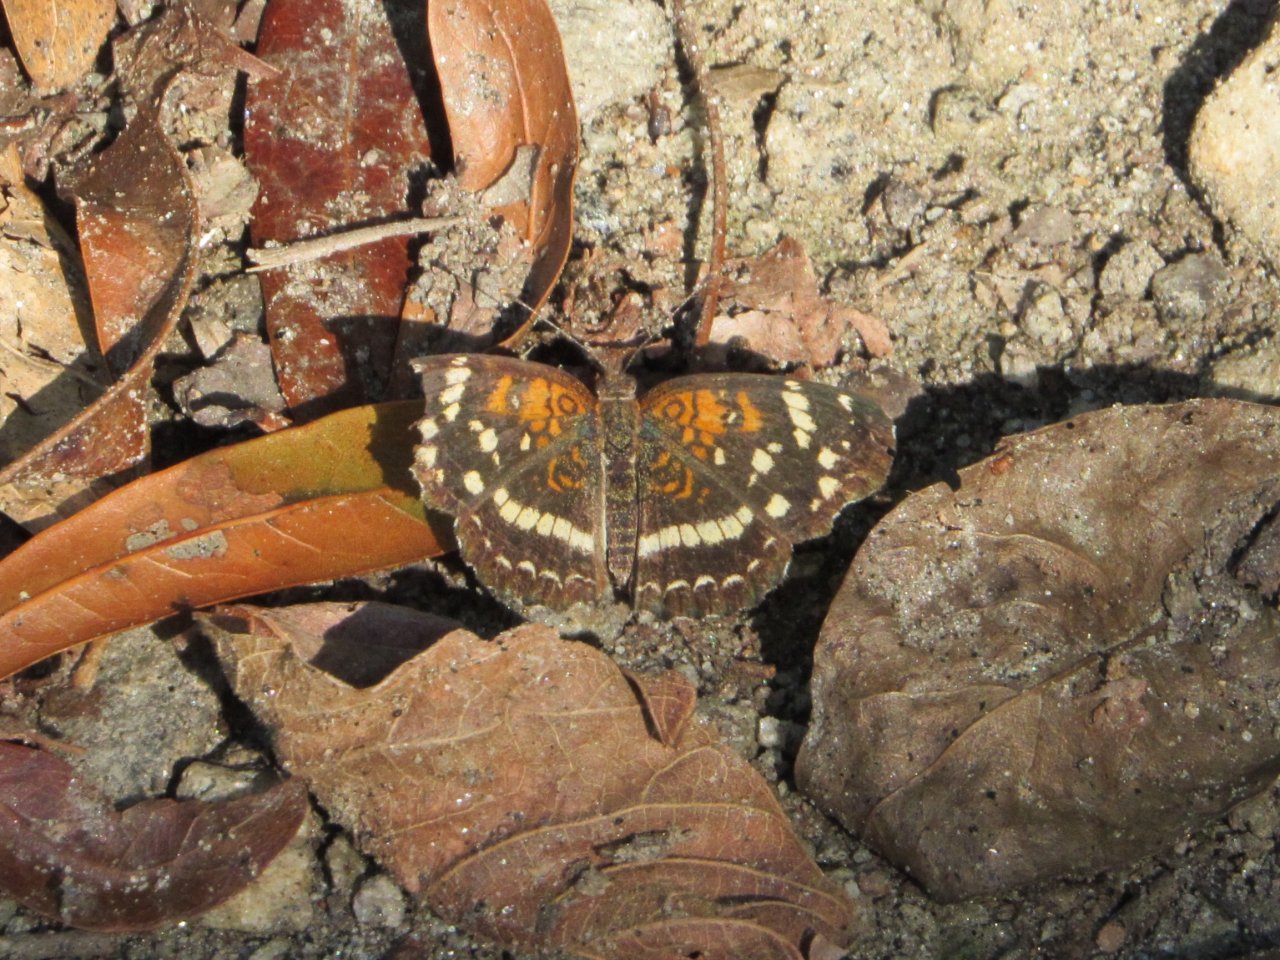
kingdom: Animalia
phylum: Arthropoda
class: Insecta
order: Lepidoptera
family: Nymphalidae
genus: Anthanassa
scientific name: Anthanassa texana
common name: Texan Crescent
